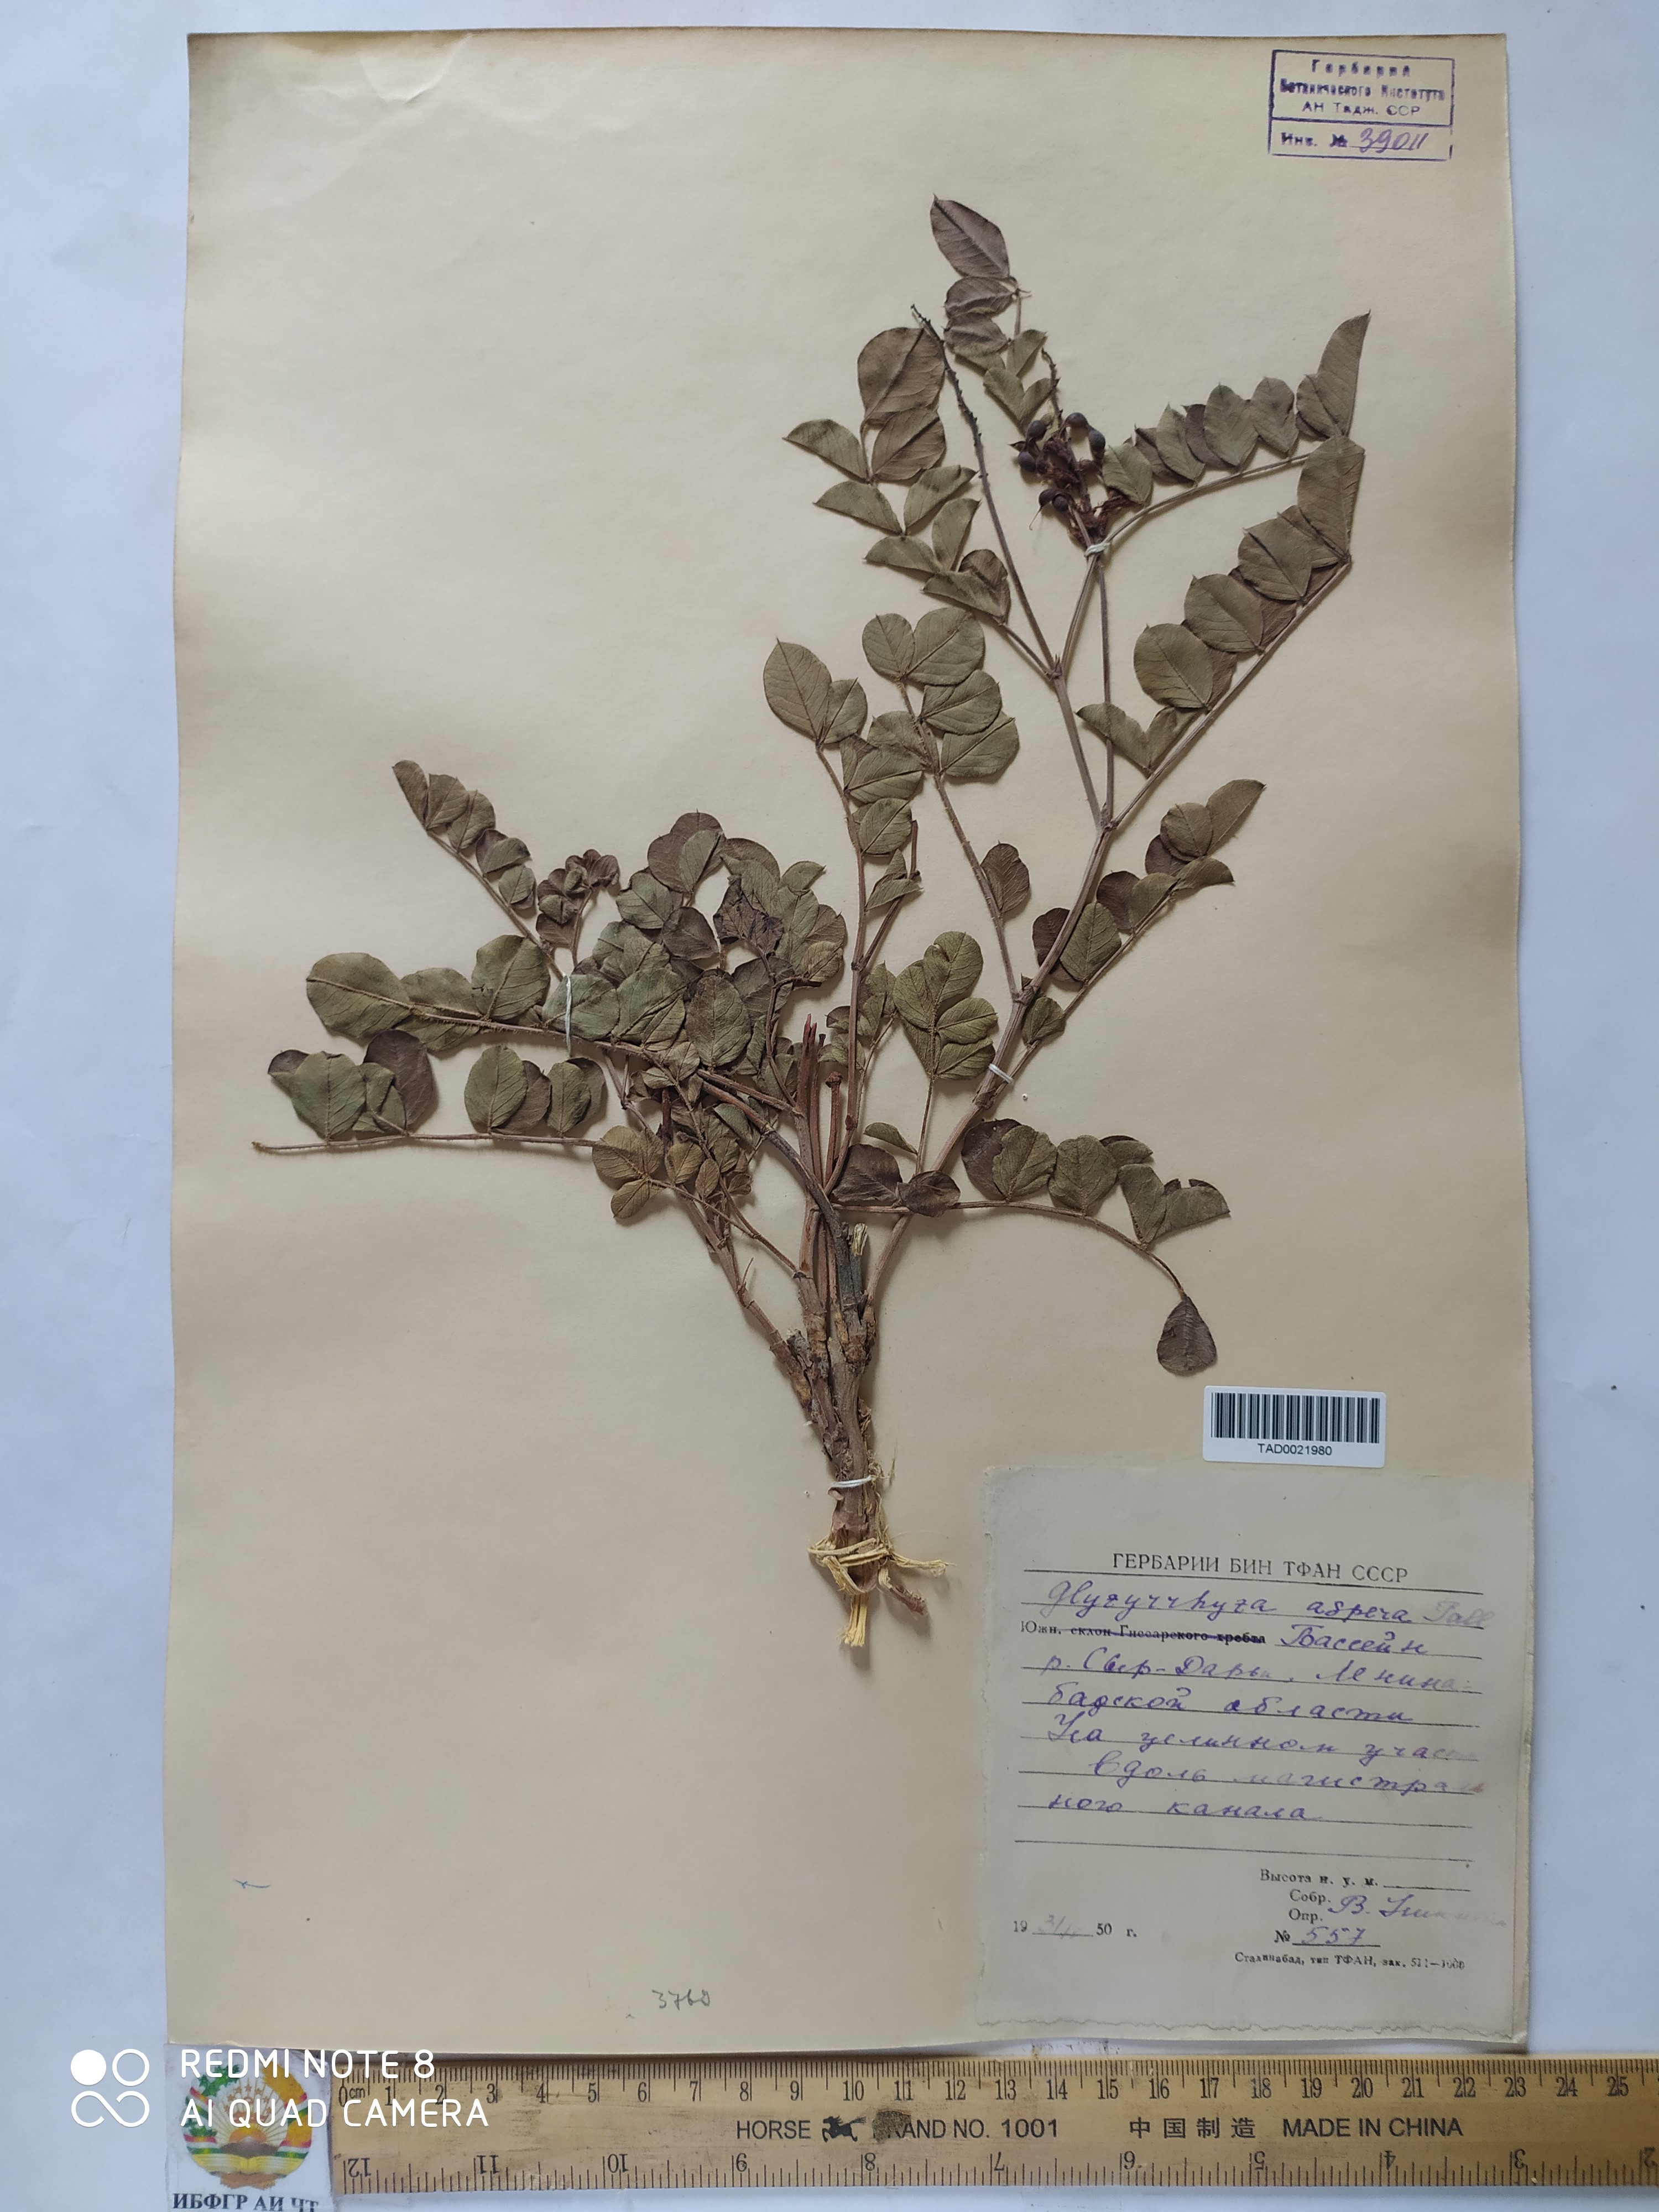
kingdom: Plantae
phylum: Tracheophyta
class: Magnoliopsida
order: Fabales
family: Fabaceae
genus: Glycyrrhiza
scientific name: Glycyrrhiza glabra
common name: Liquorice
